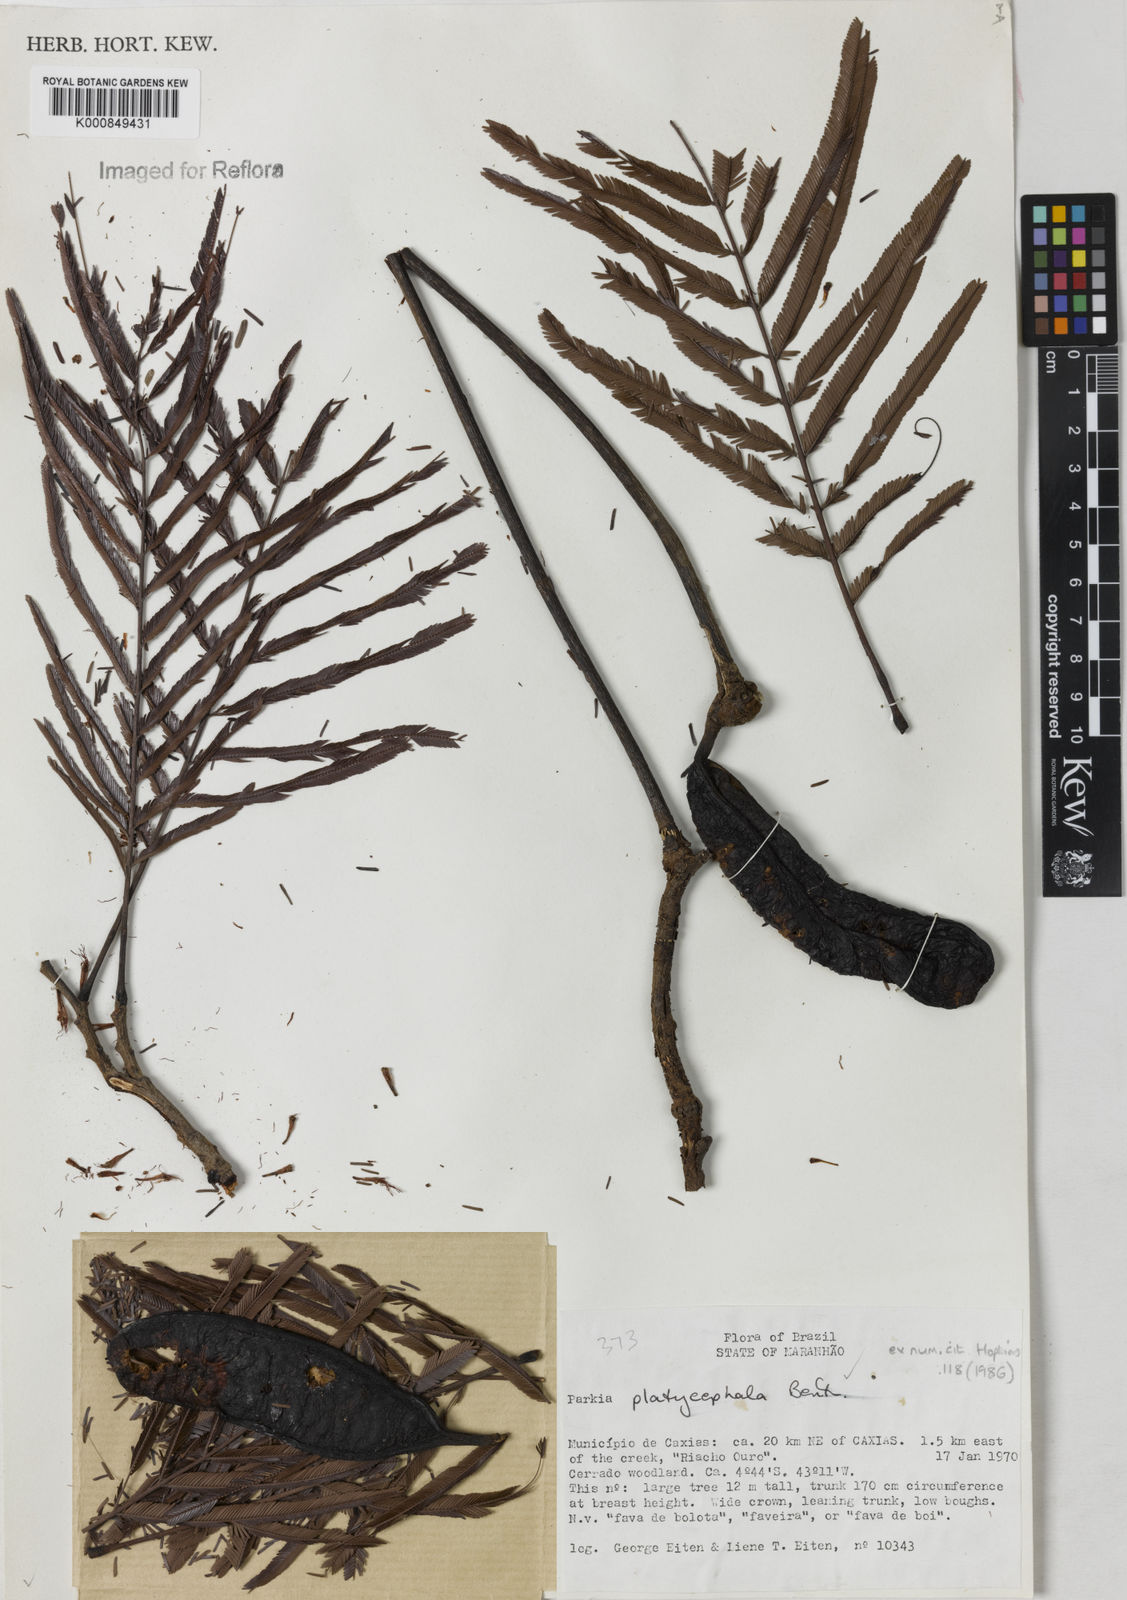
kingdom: Plantae
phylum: Tracheophyta
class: Magnoliopsida
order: Fabales
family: Fabaceae
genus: Parkia
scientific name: Parkia platycephala
